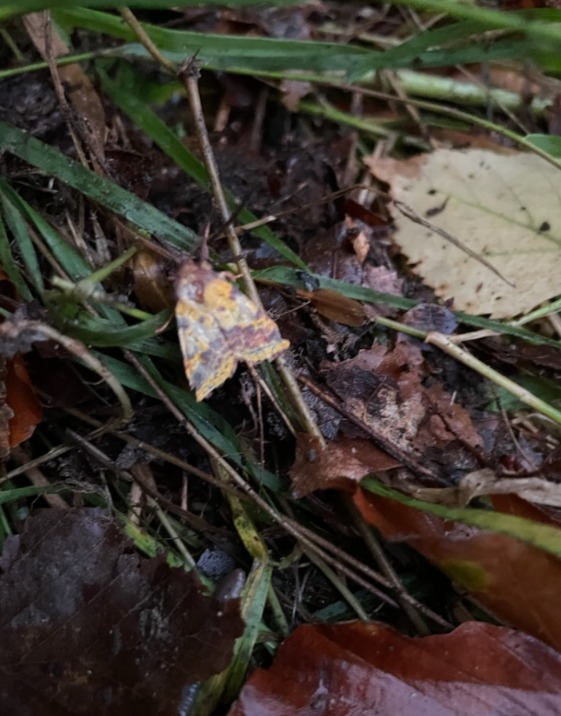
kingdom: Animalia
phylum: Arthropoda
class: Insecta
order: Lepidoptera
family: Noctuidae
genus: Xanthia
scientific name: Xanthia togata
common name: Toga-septemberugle
